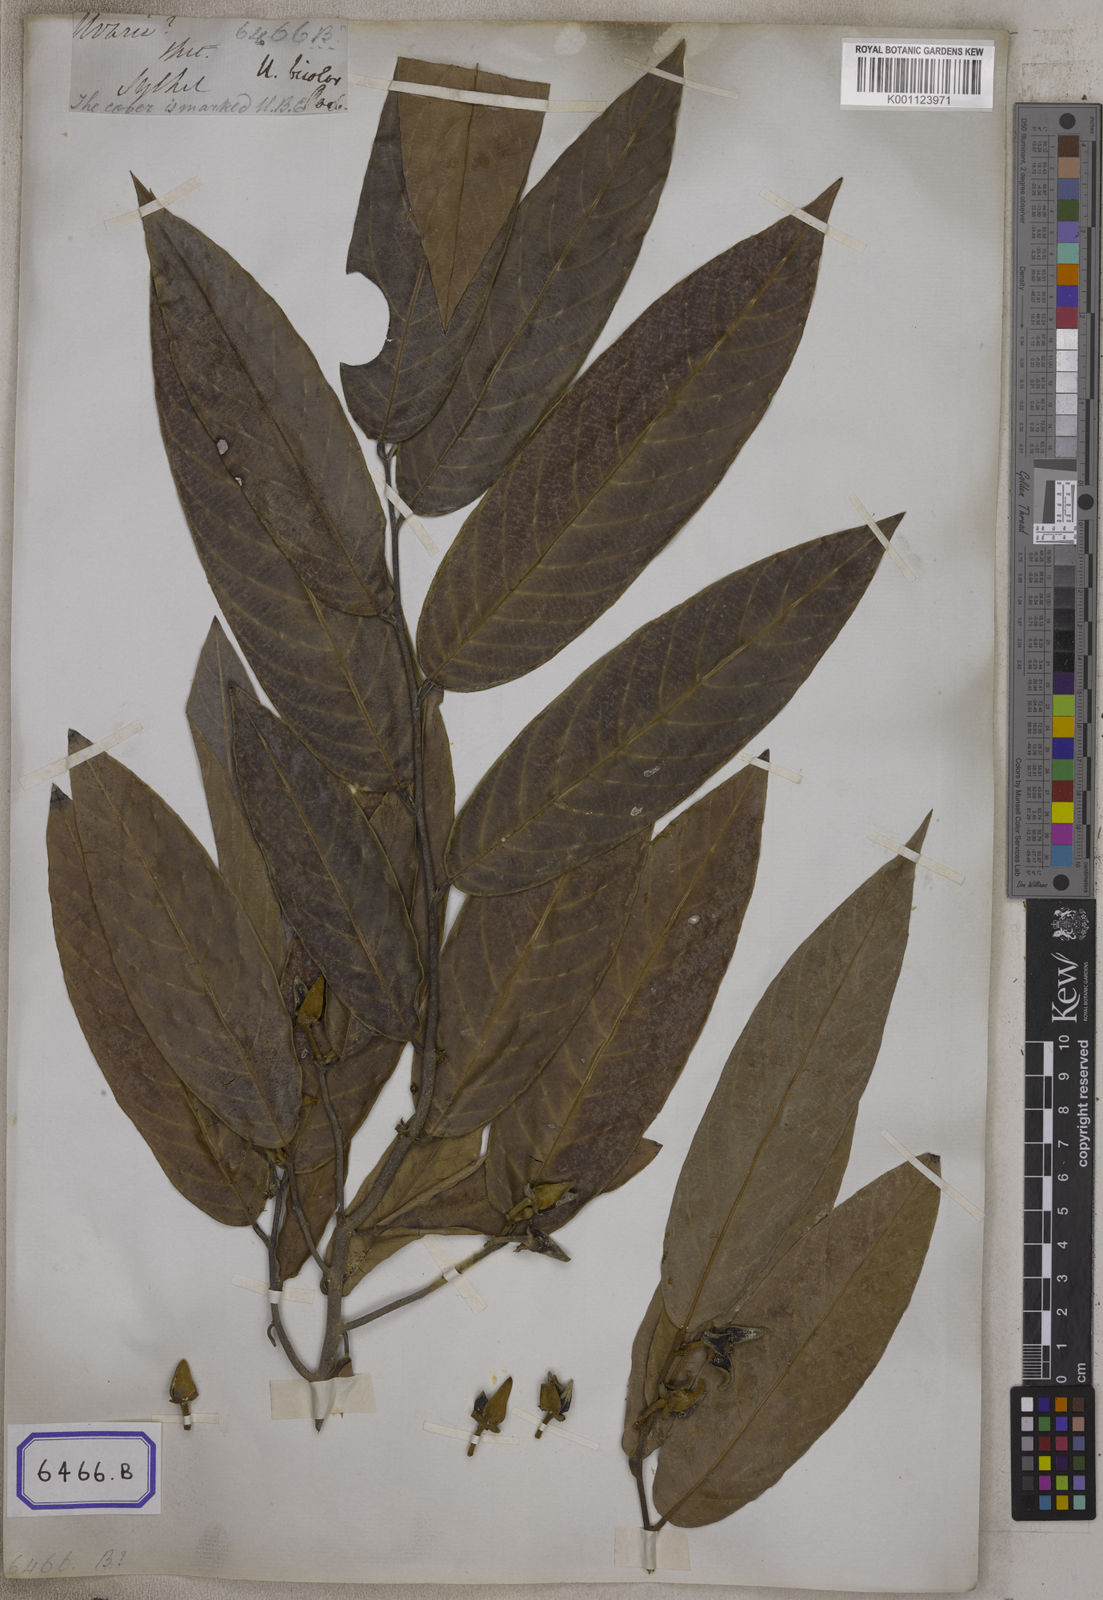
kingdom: Plantae
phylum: Tracheophyta
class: Magnoliopsida
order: Magnoliales
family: Annonaceae
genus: Fissistigma
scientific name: Fissistigma bicolor
